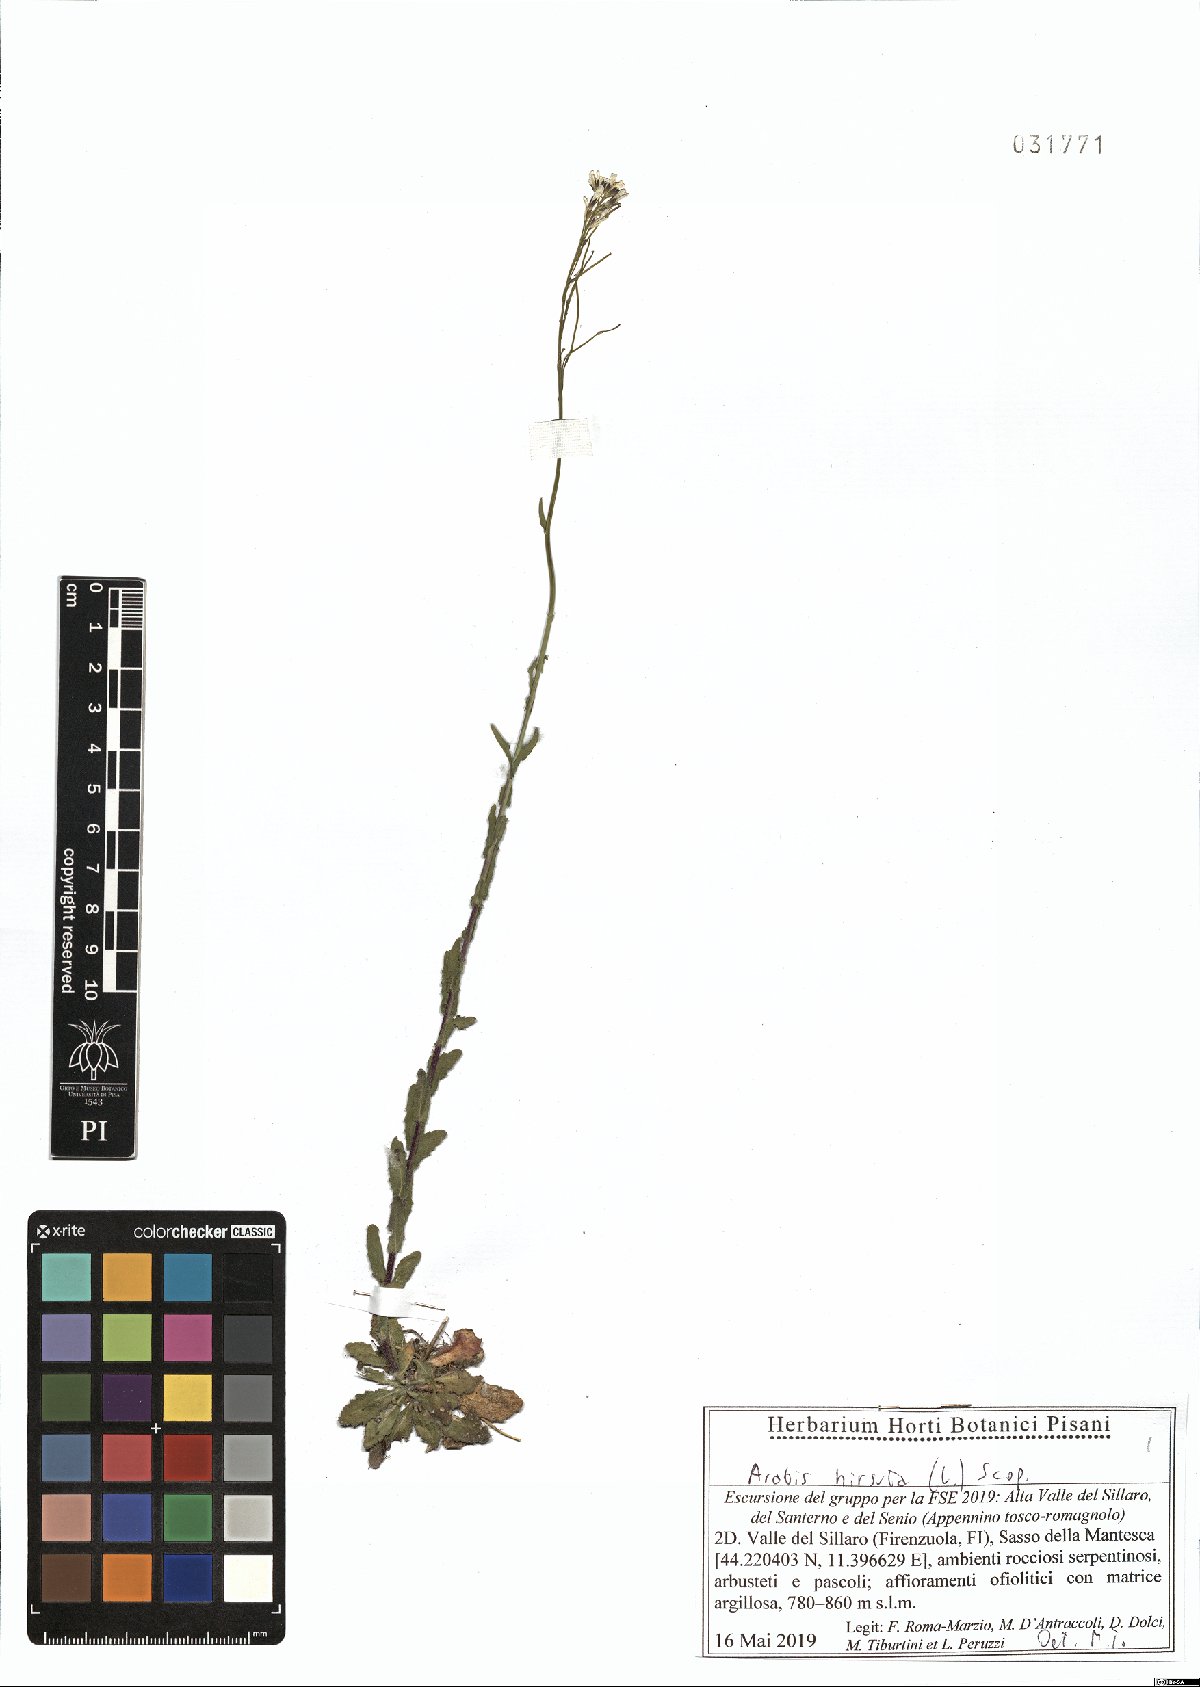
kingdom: Plantae
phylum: Tracheophyta
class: Magnoliopsida
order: Brassicales
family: Brassicaceae
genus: Arabis
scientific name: Arabis hirsuta
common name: Hairy rock-cress
